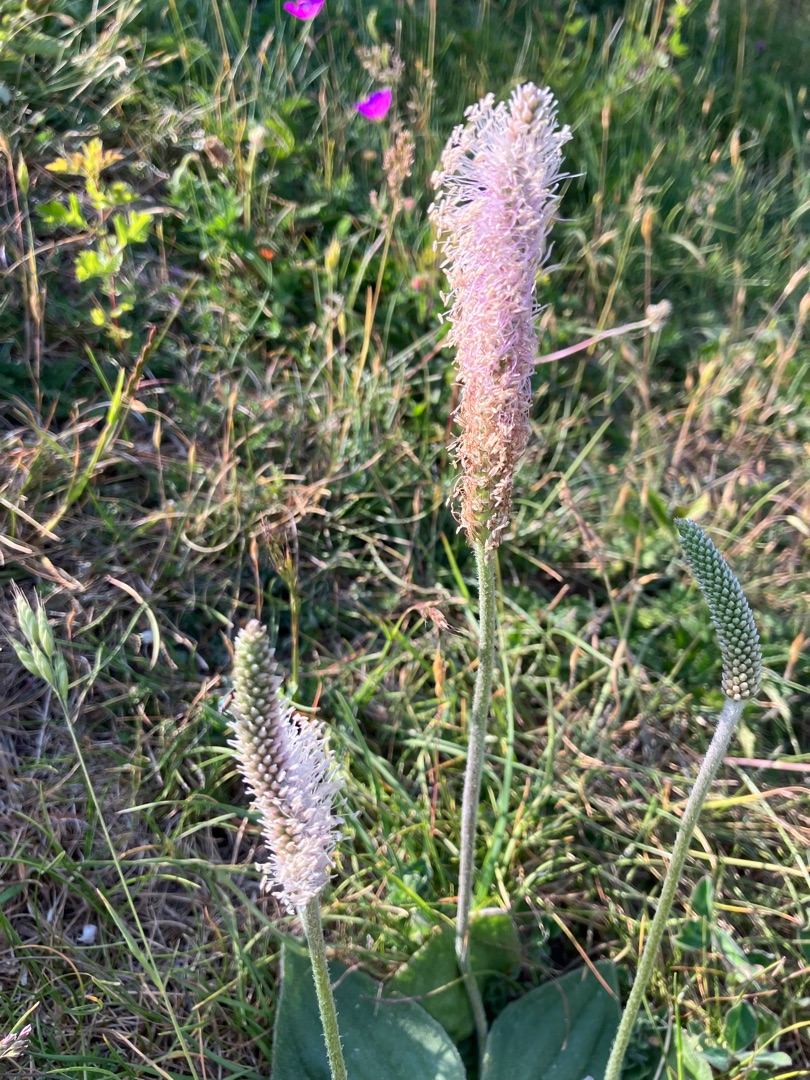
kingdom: Plantae
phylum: Tracheophyta
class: Magnoliopsida
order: Lamiales
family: Plantaginaceae
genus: Plantago
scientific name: Plantago media
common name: Dunet vejbred
